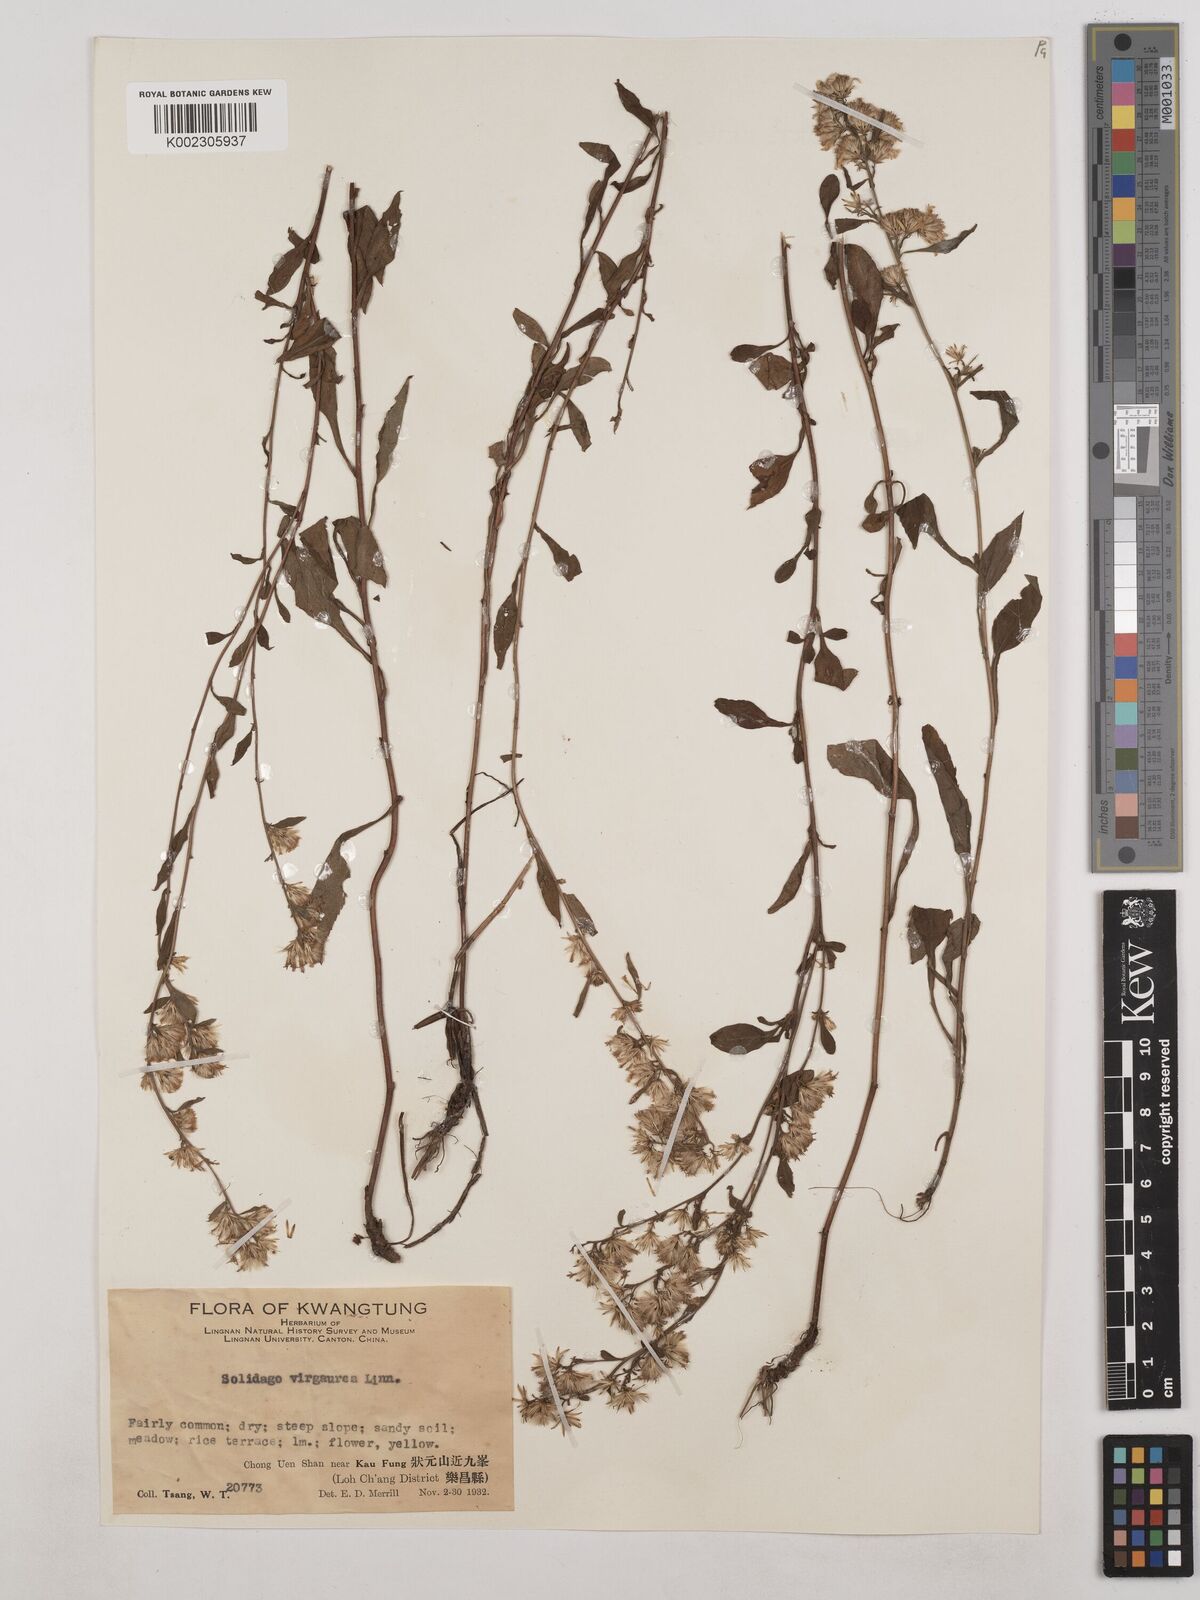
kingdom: Plantae
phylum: Tracheophyta
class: Magnoliopsida
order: Asterales
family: Asteraceae
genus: Solidago
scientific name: Solidago virgaurea
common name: Goldenrod
